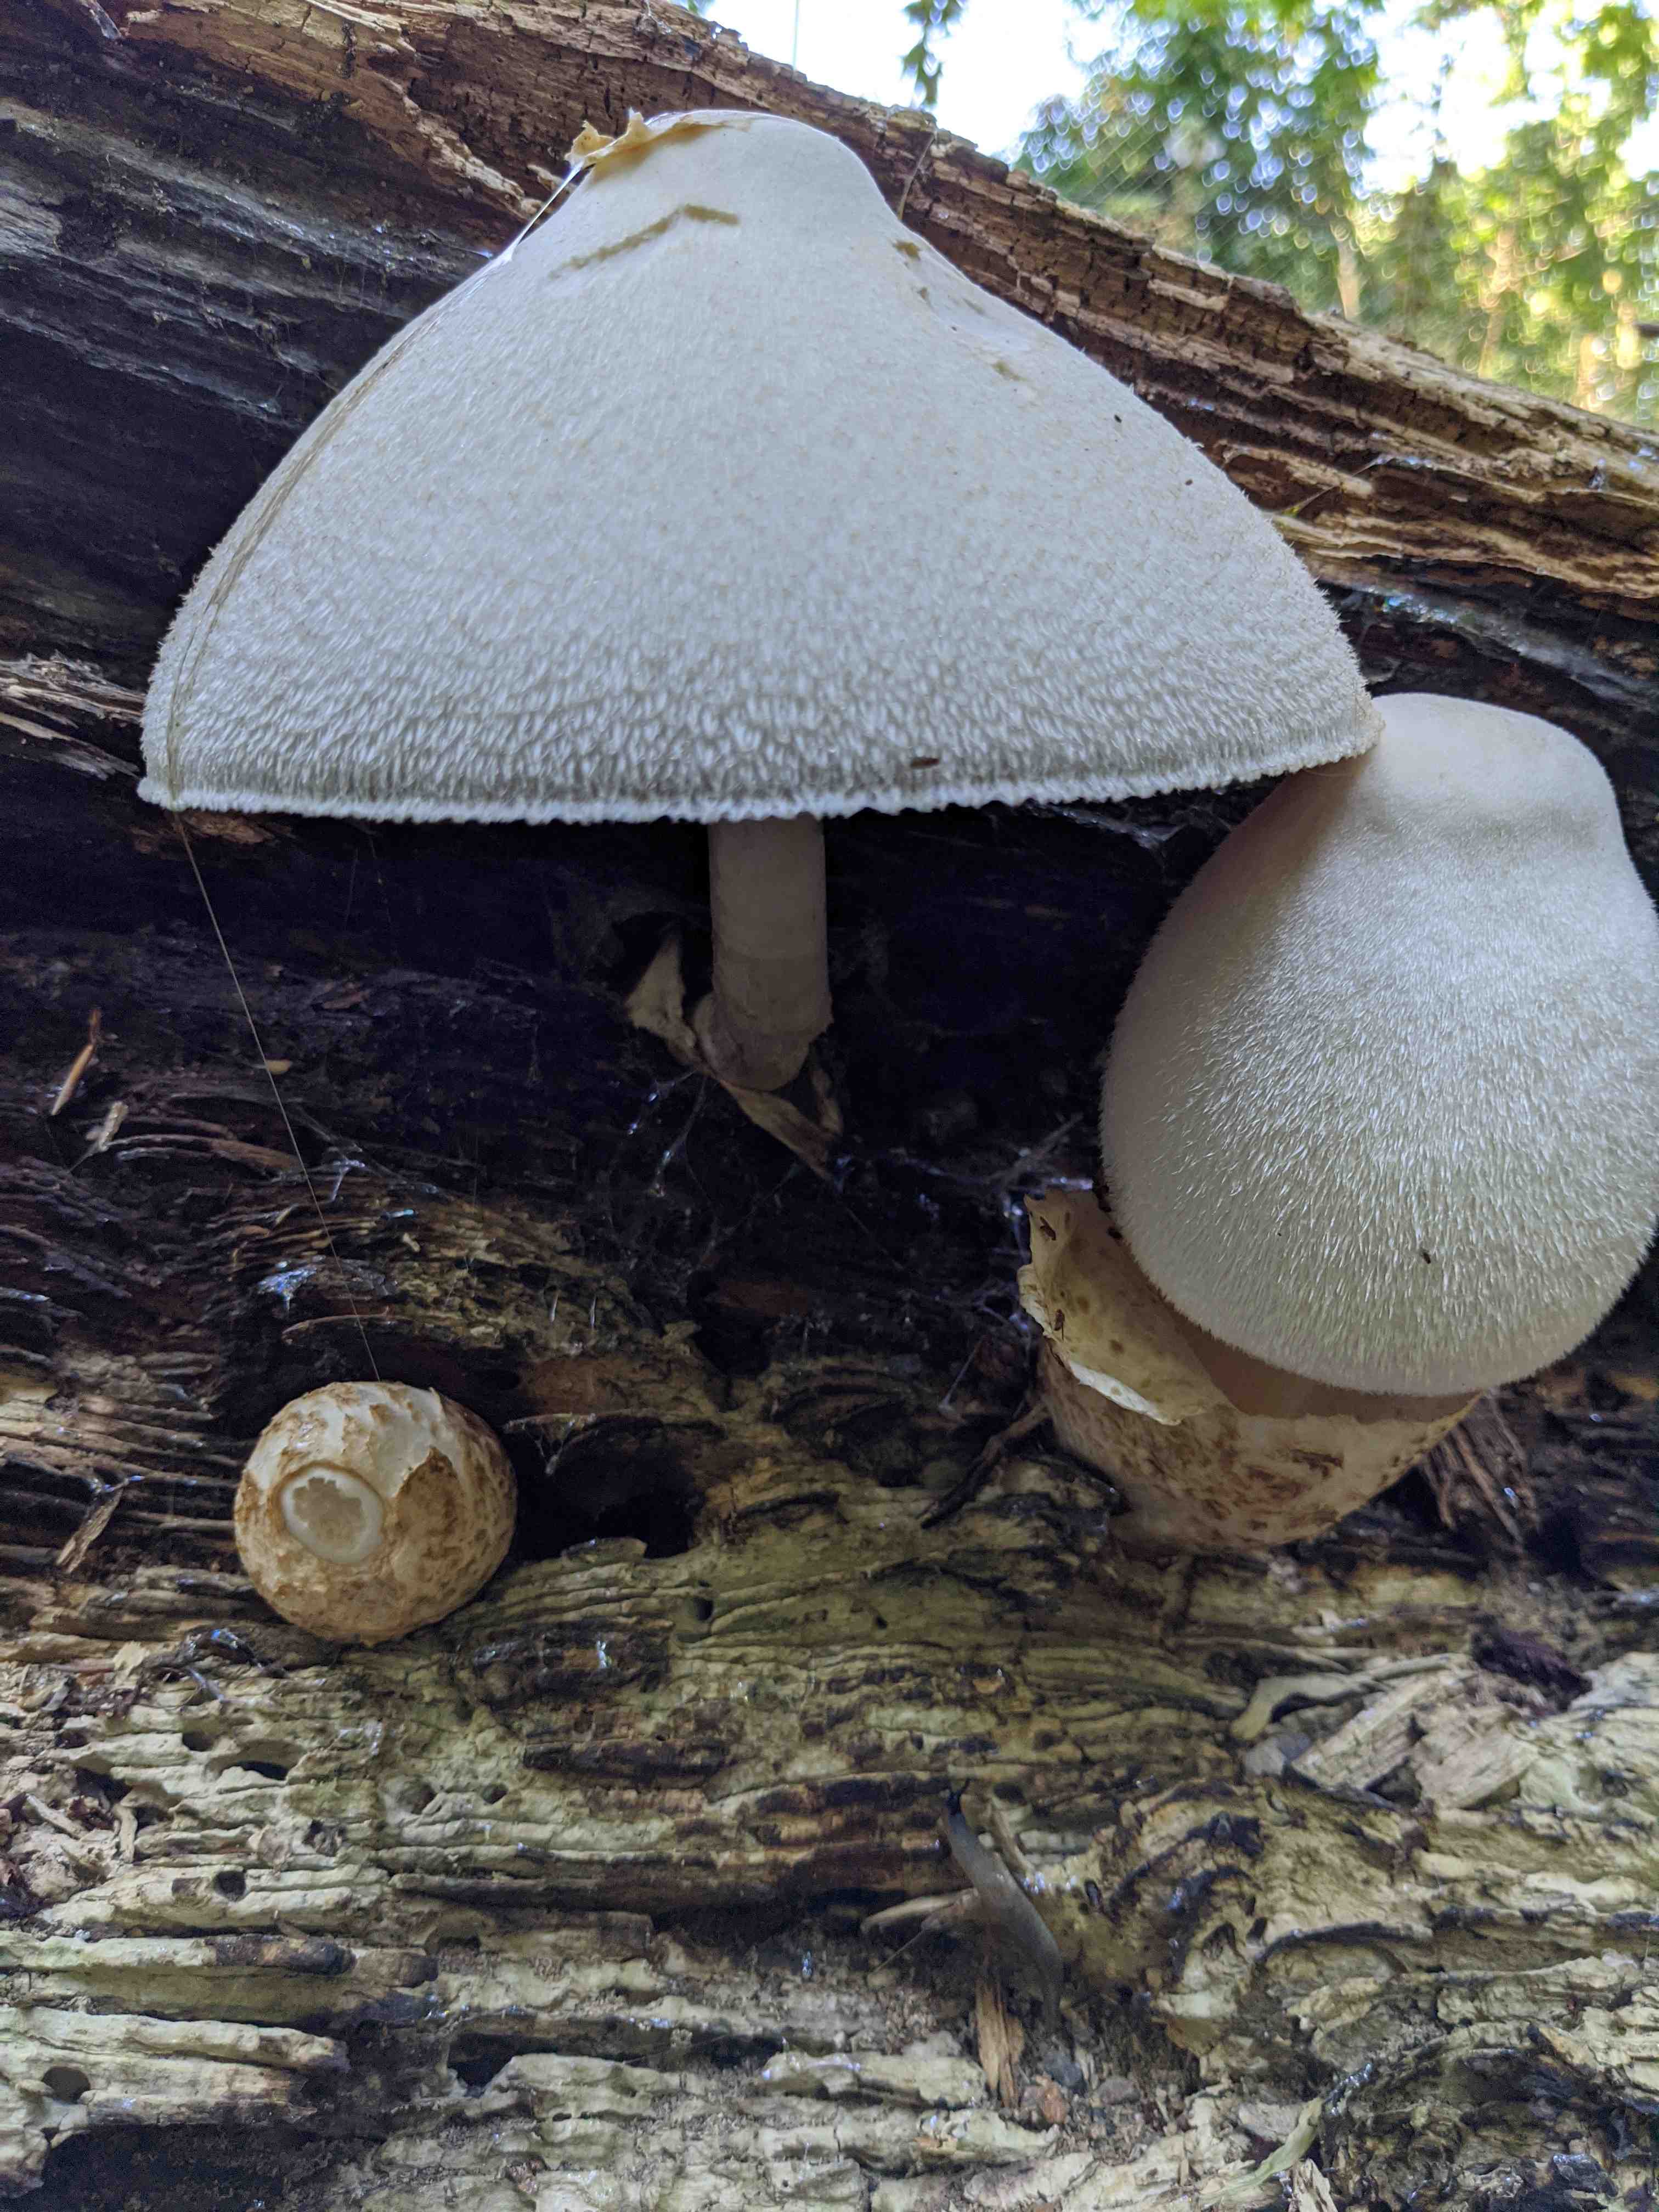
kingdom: Fungi
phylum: Basidiomycota
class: Agaricomycetes
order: Agaricales
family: Pluteaceae
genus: Volvariella
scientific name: Volvariella bombycina
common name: silkehåret posesvamp
